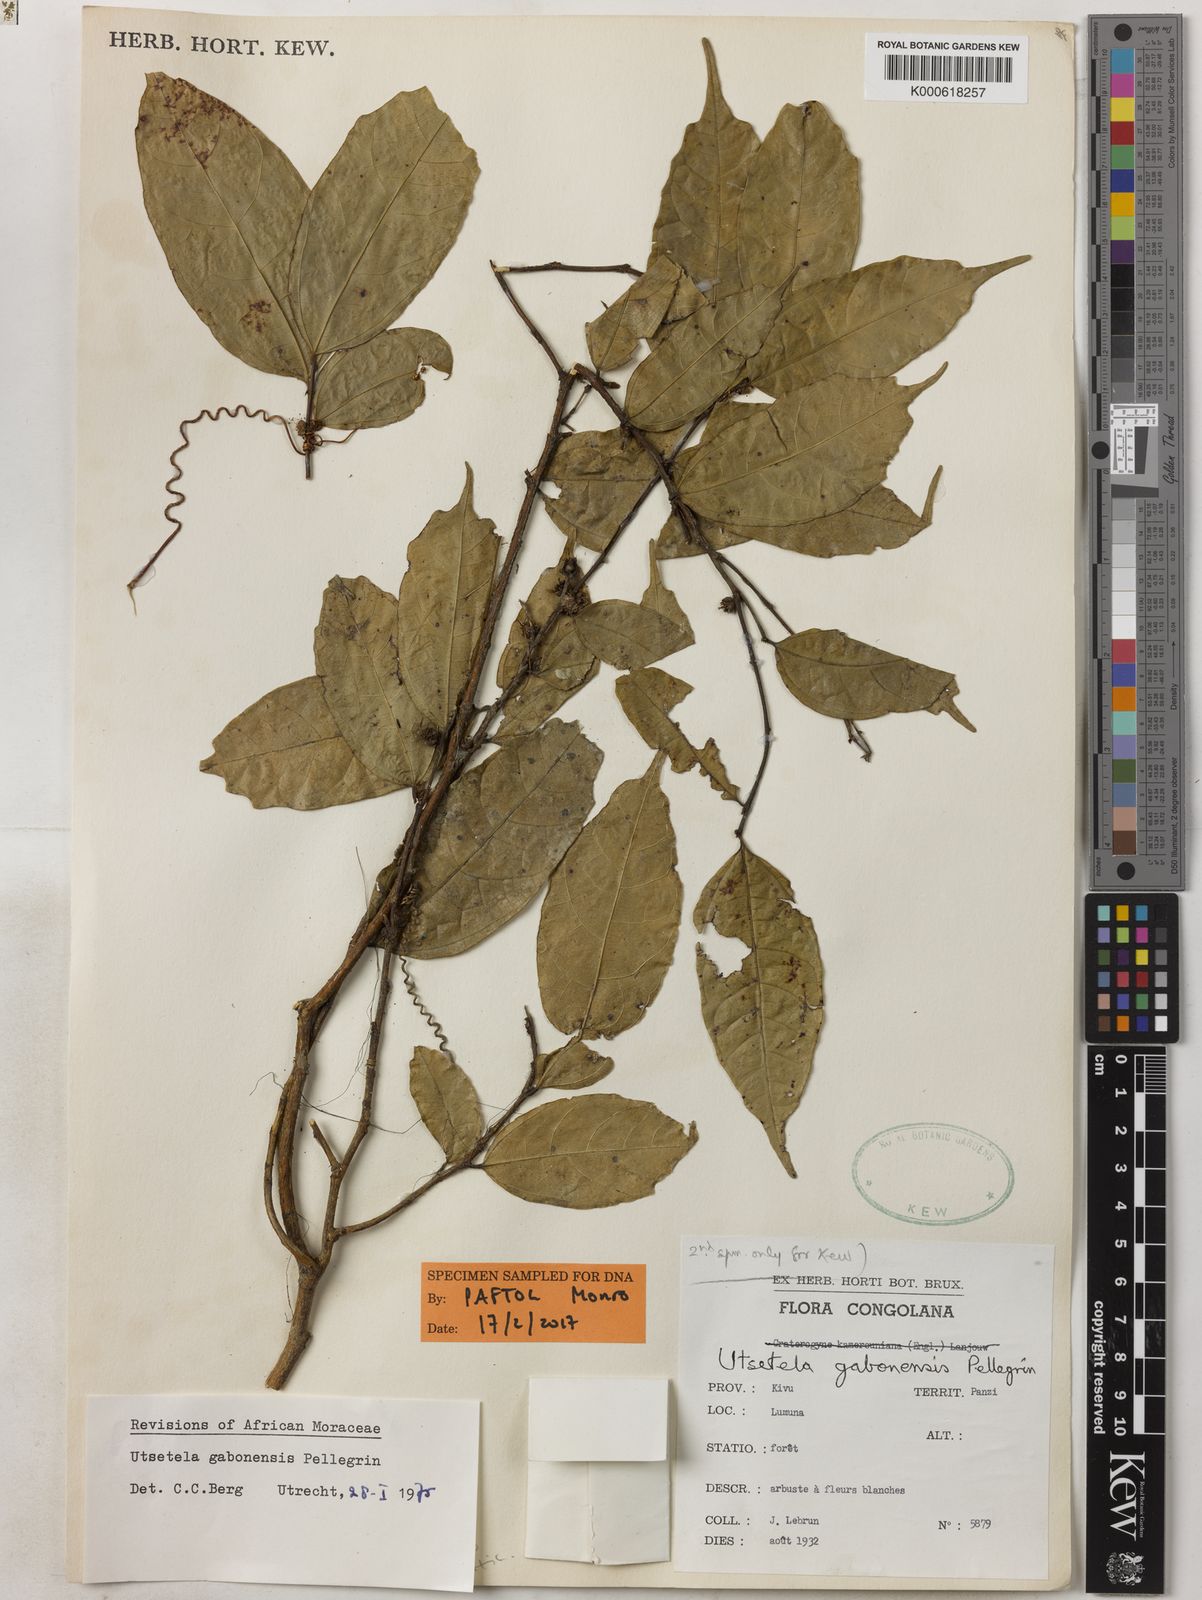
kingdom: Plantae
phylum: Tracheophyta
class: Magnoliopsida
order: Rosales
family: Moraceae
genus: Utsetela
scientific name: Utsetela gabonensis
